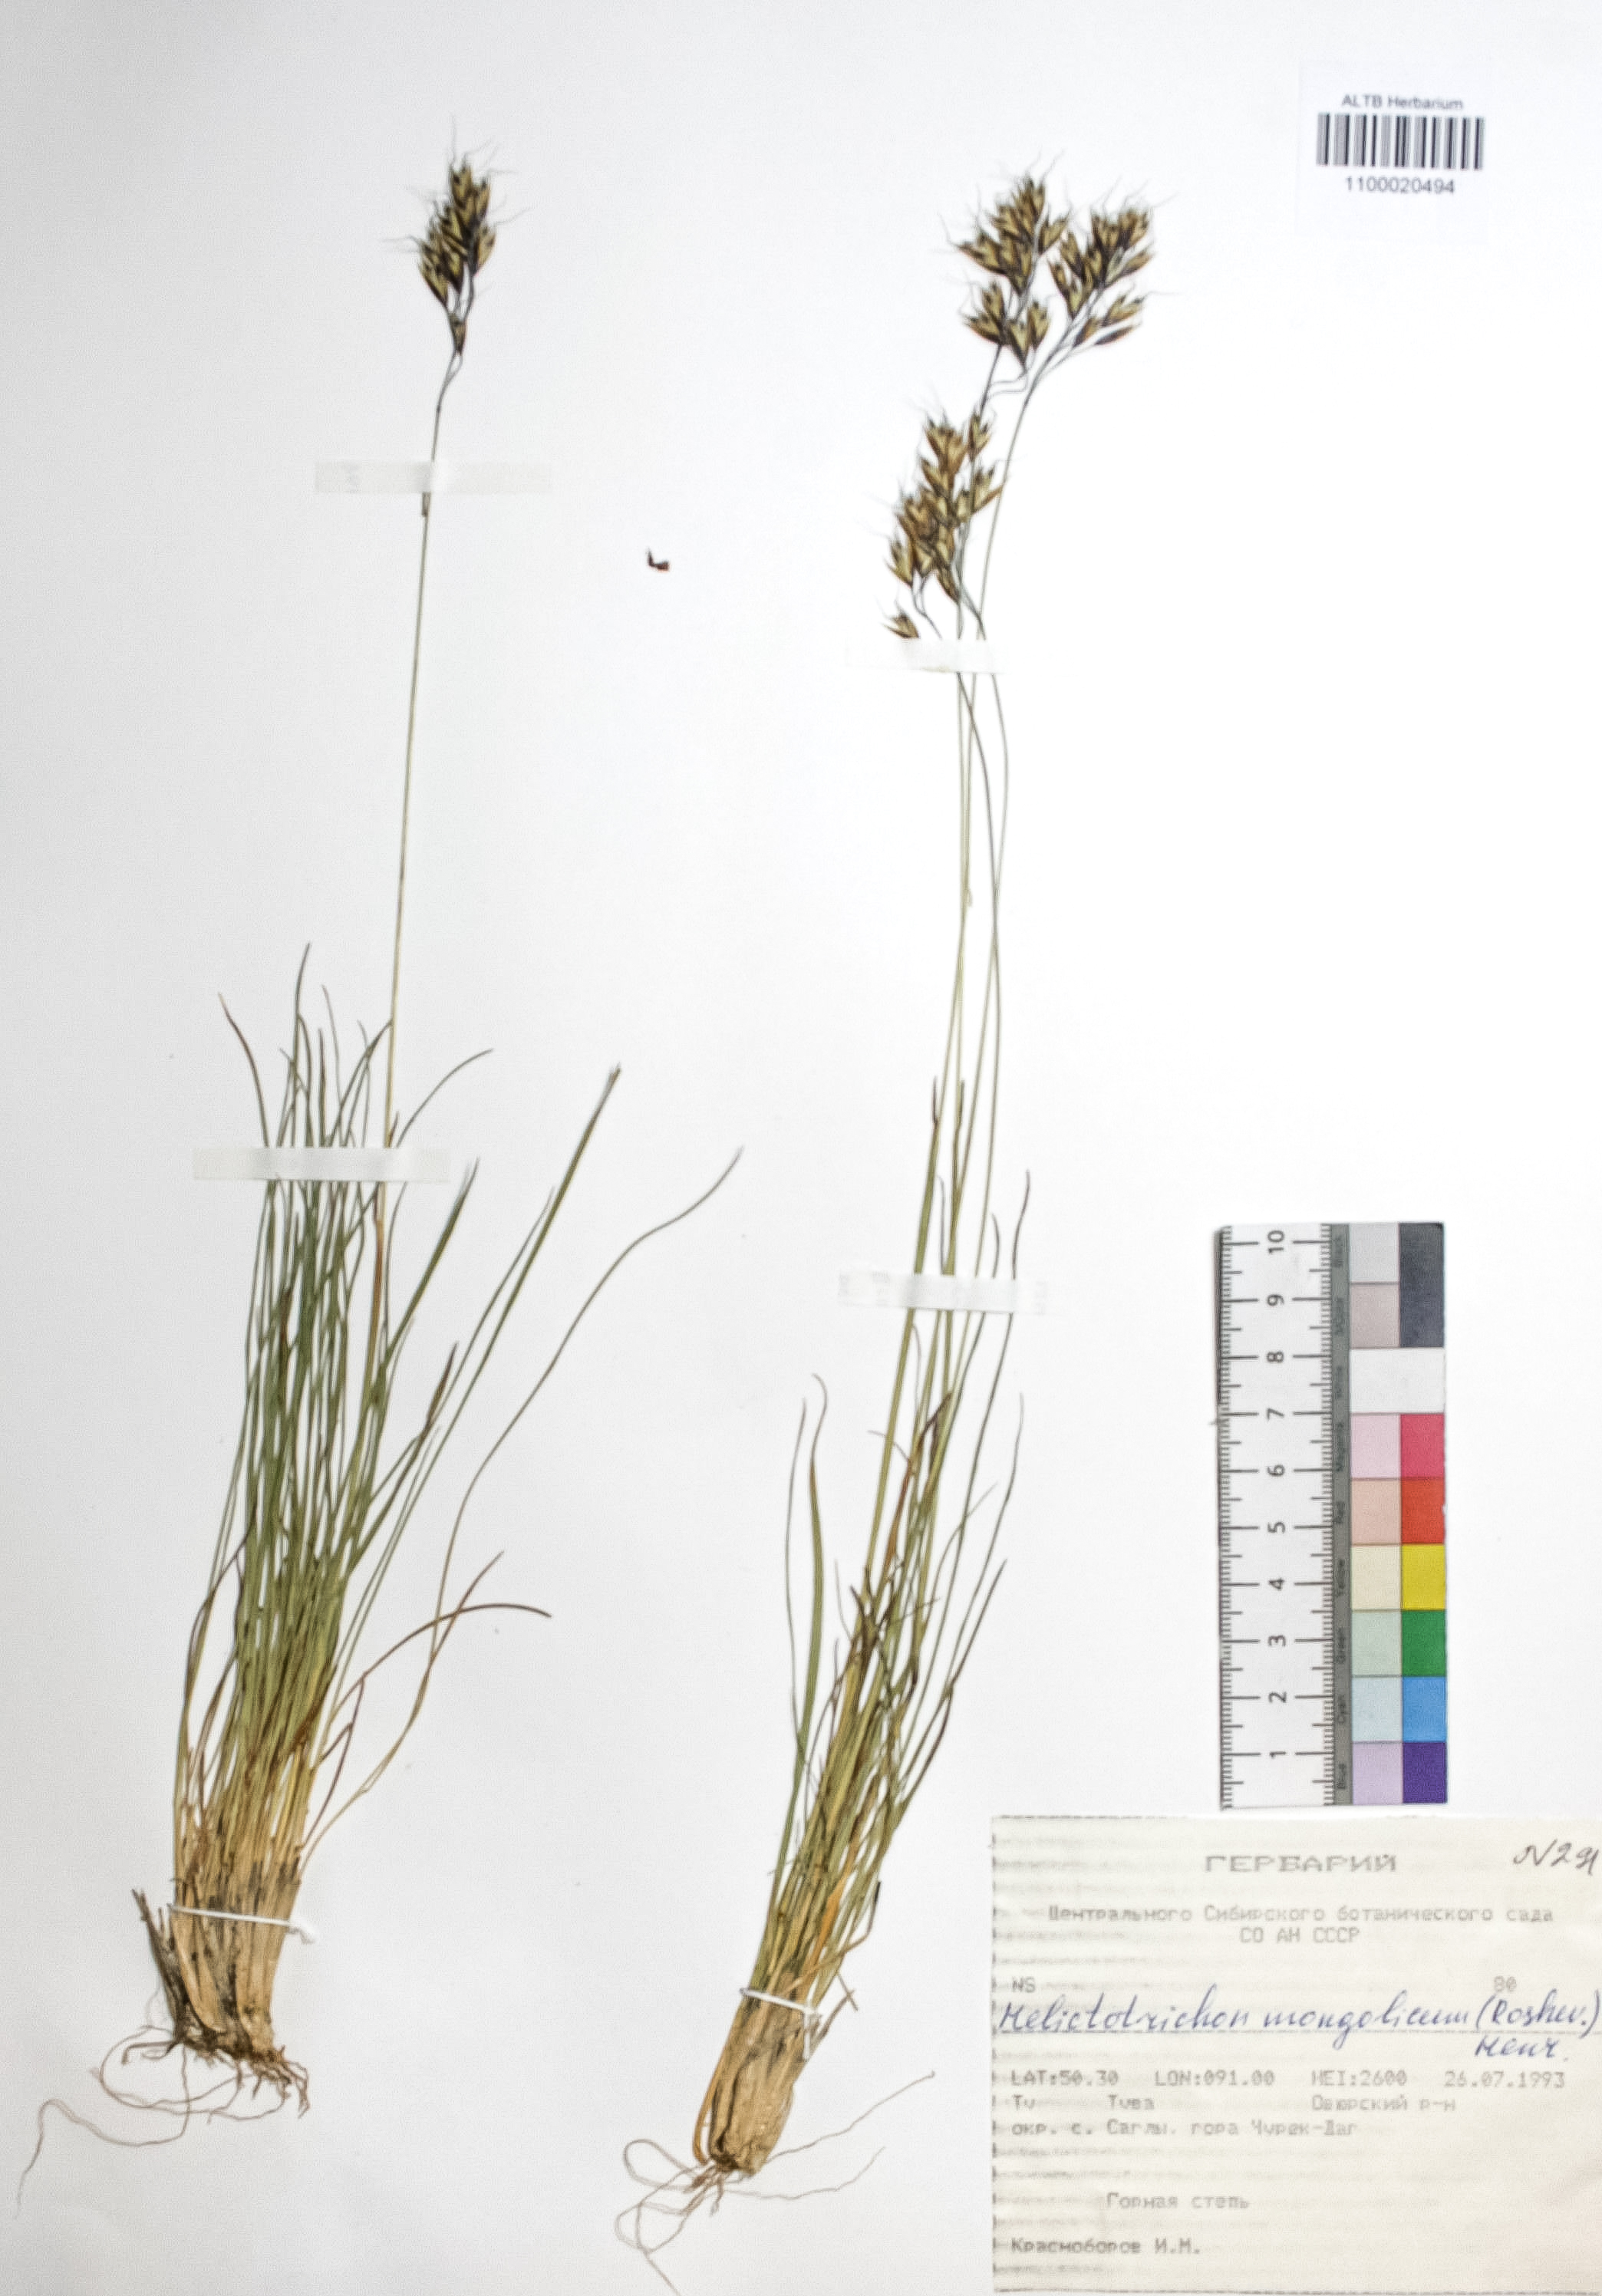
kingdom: Plantae
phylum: Tracheophyta
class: Liliopsida
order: Poales
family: Poaceae
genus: Helictotrichon
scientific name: Helictotrichon mongolicum
